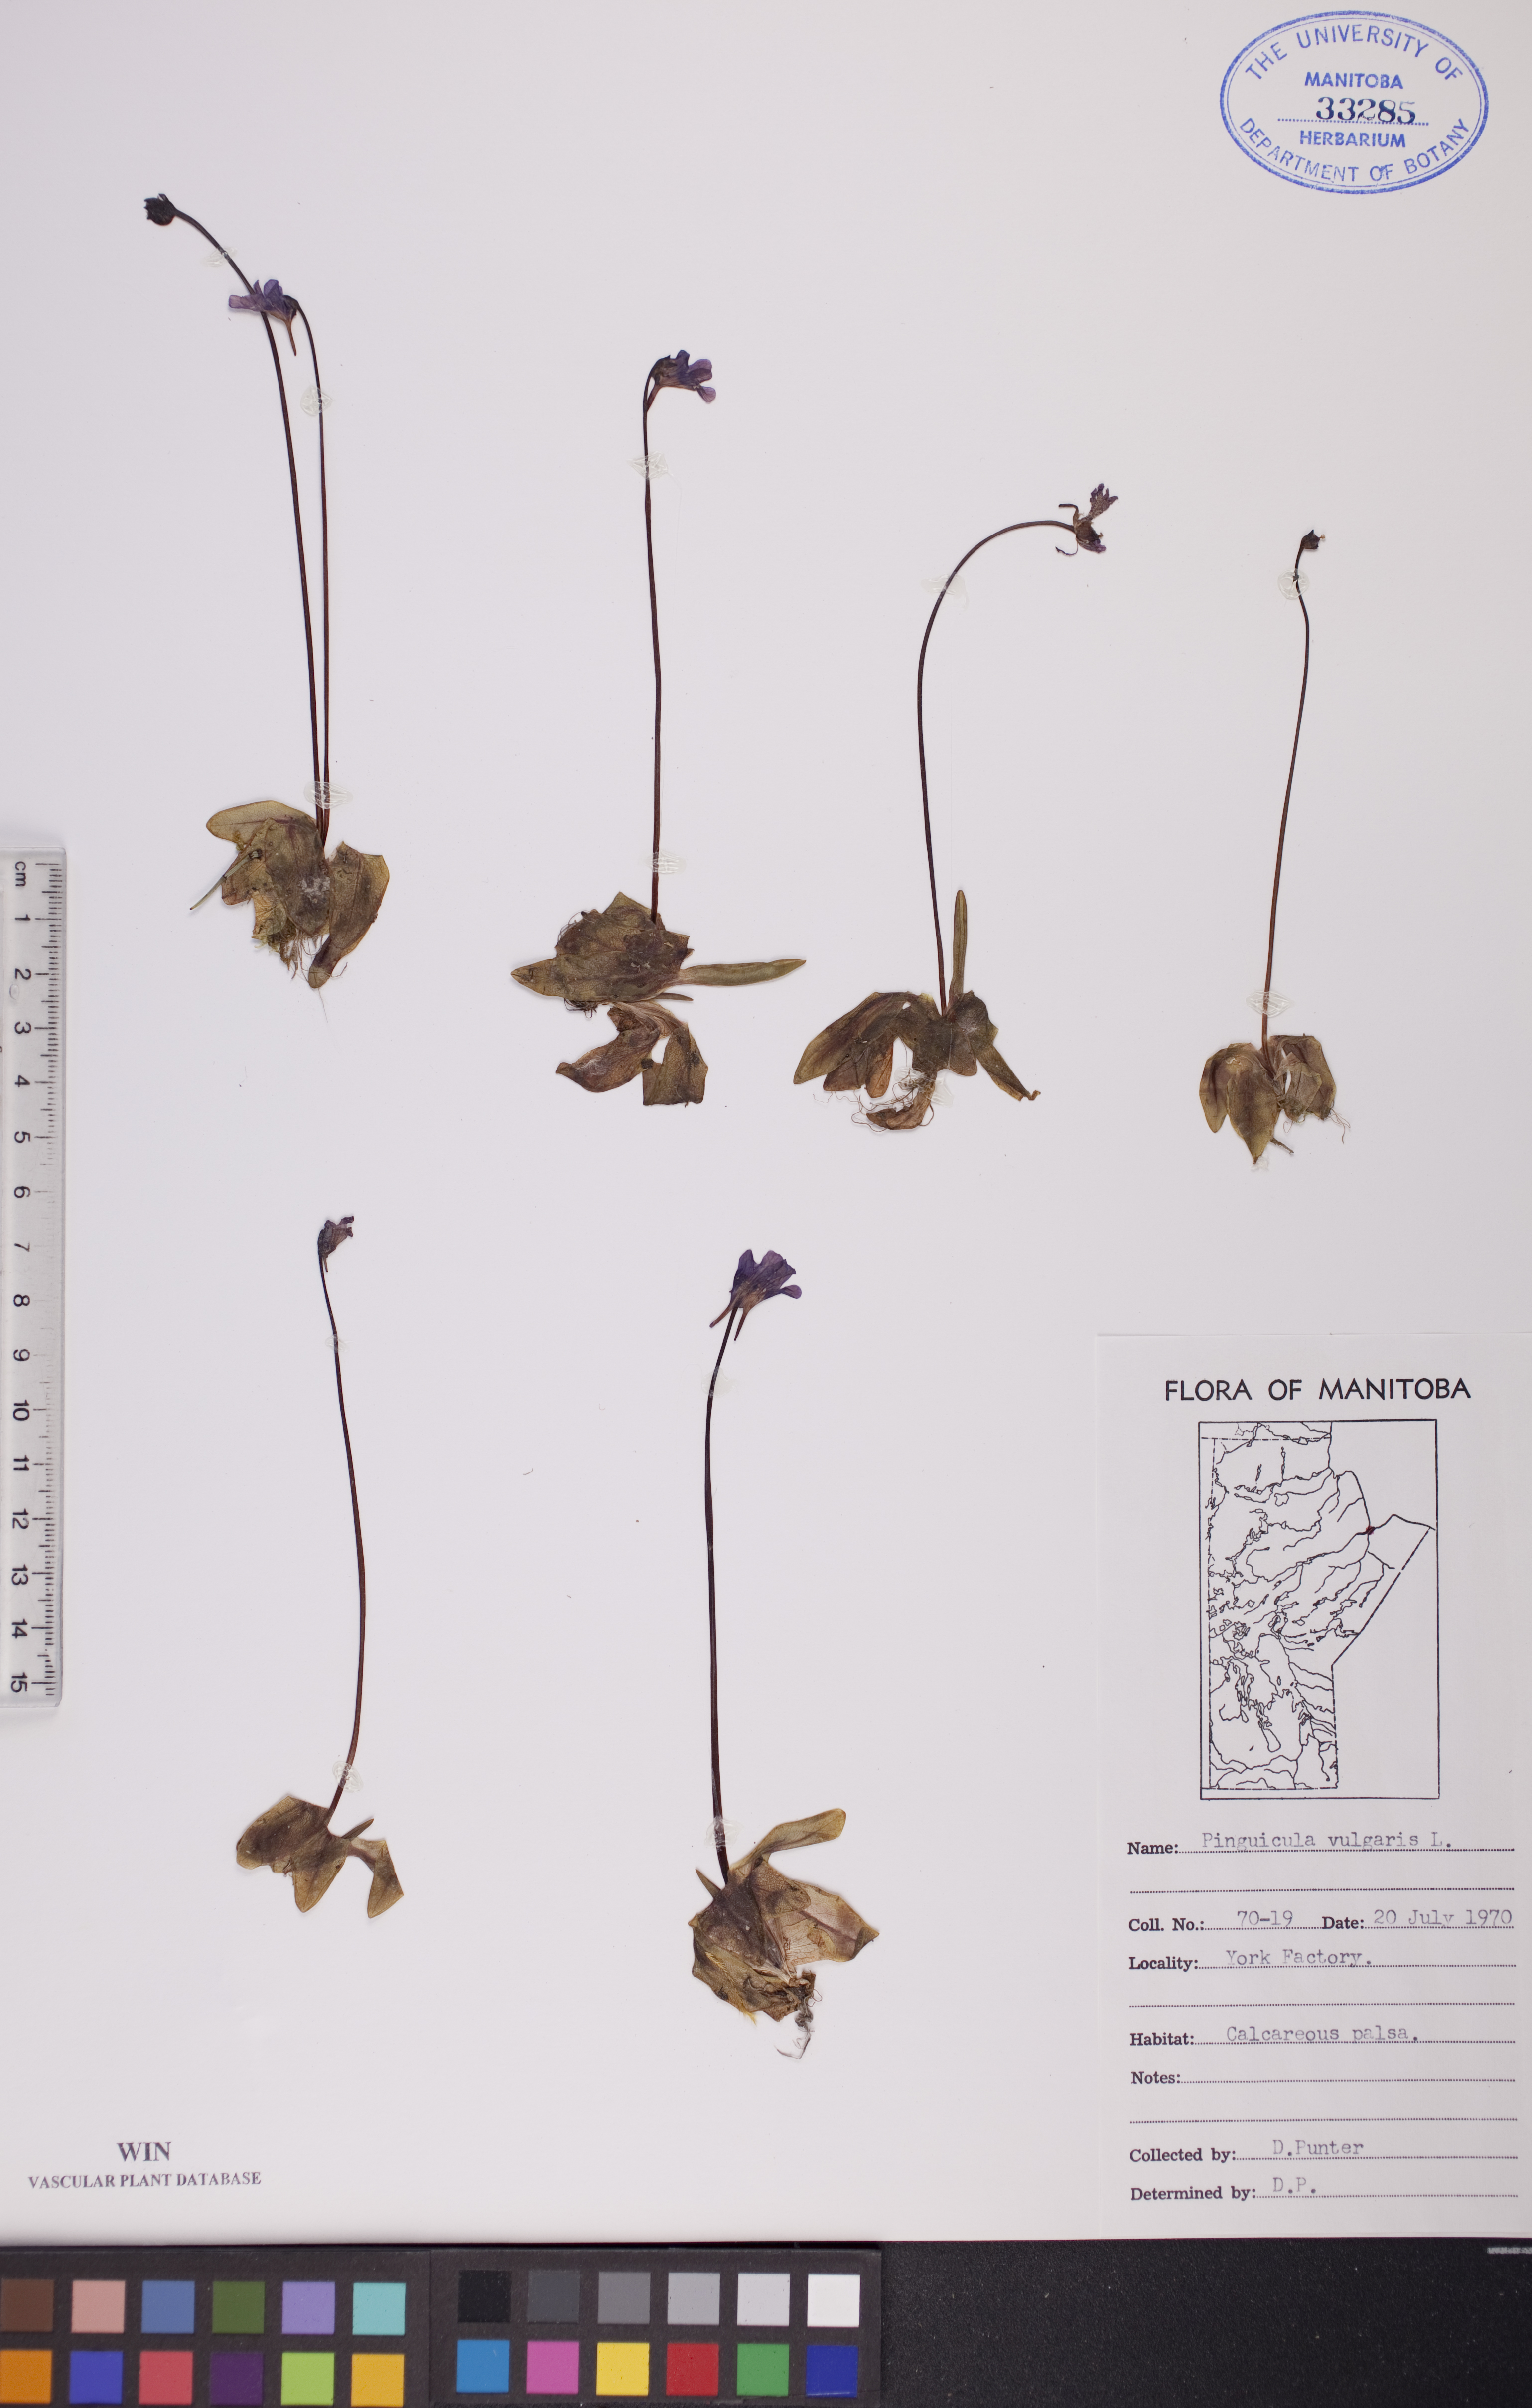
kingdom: Plantae
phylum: Tracheophyta
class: Magnoliopsida
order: Lamiales
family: Lentibulariaceae
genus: Pinguicula
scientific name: Pinguicula vulgaris
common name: Common butterwort
